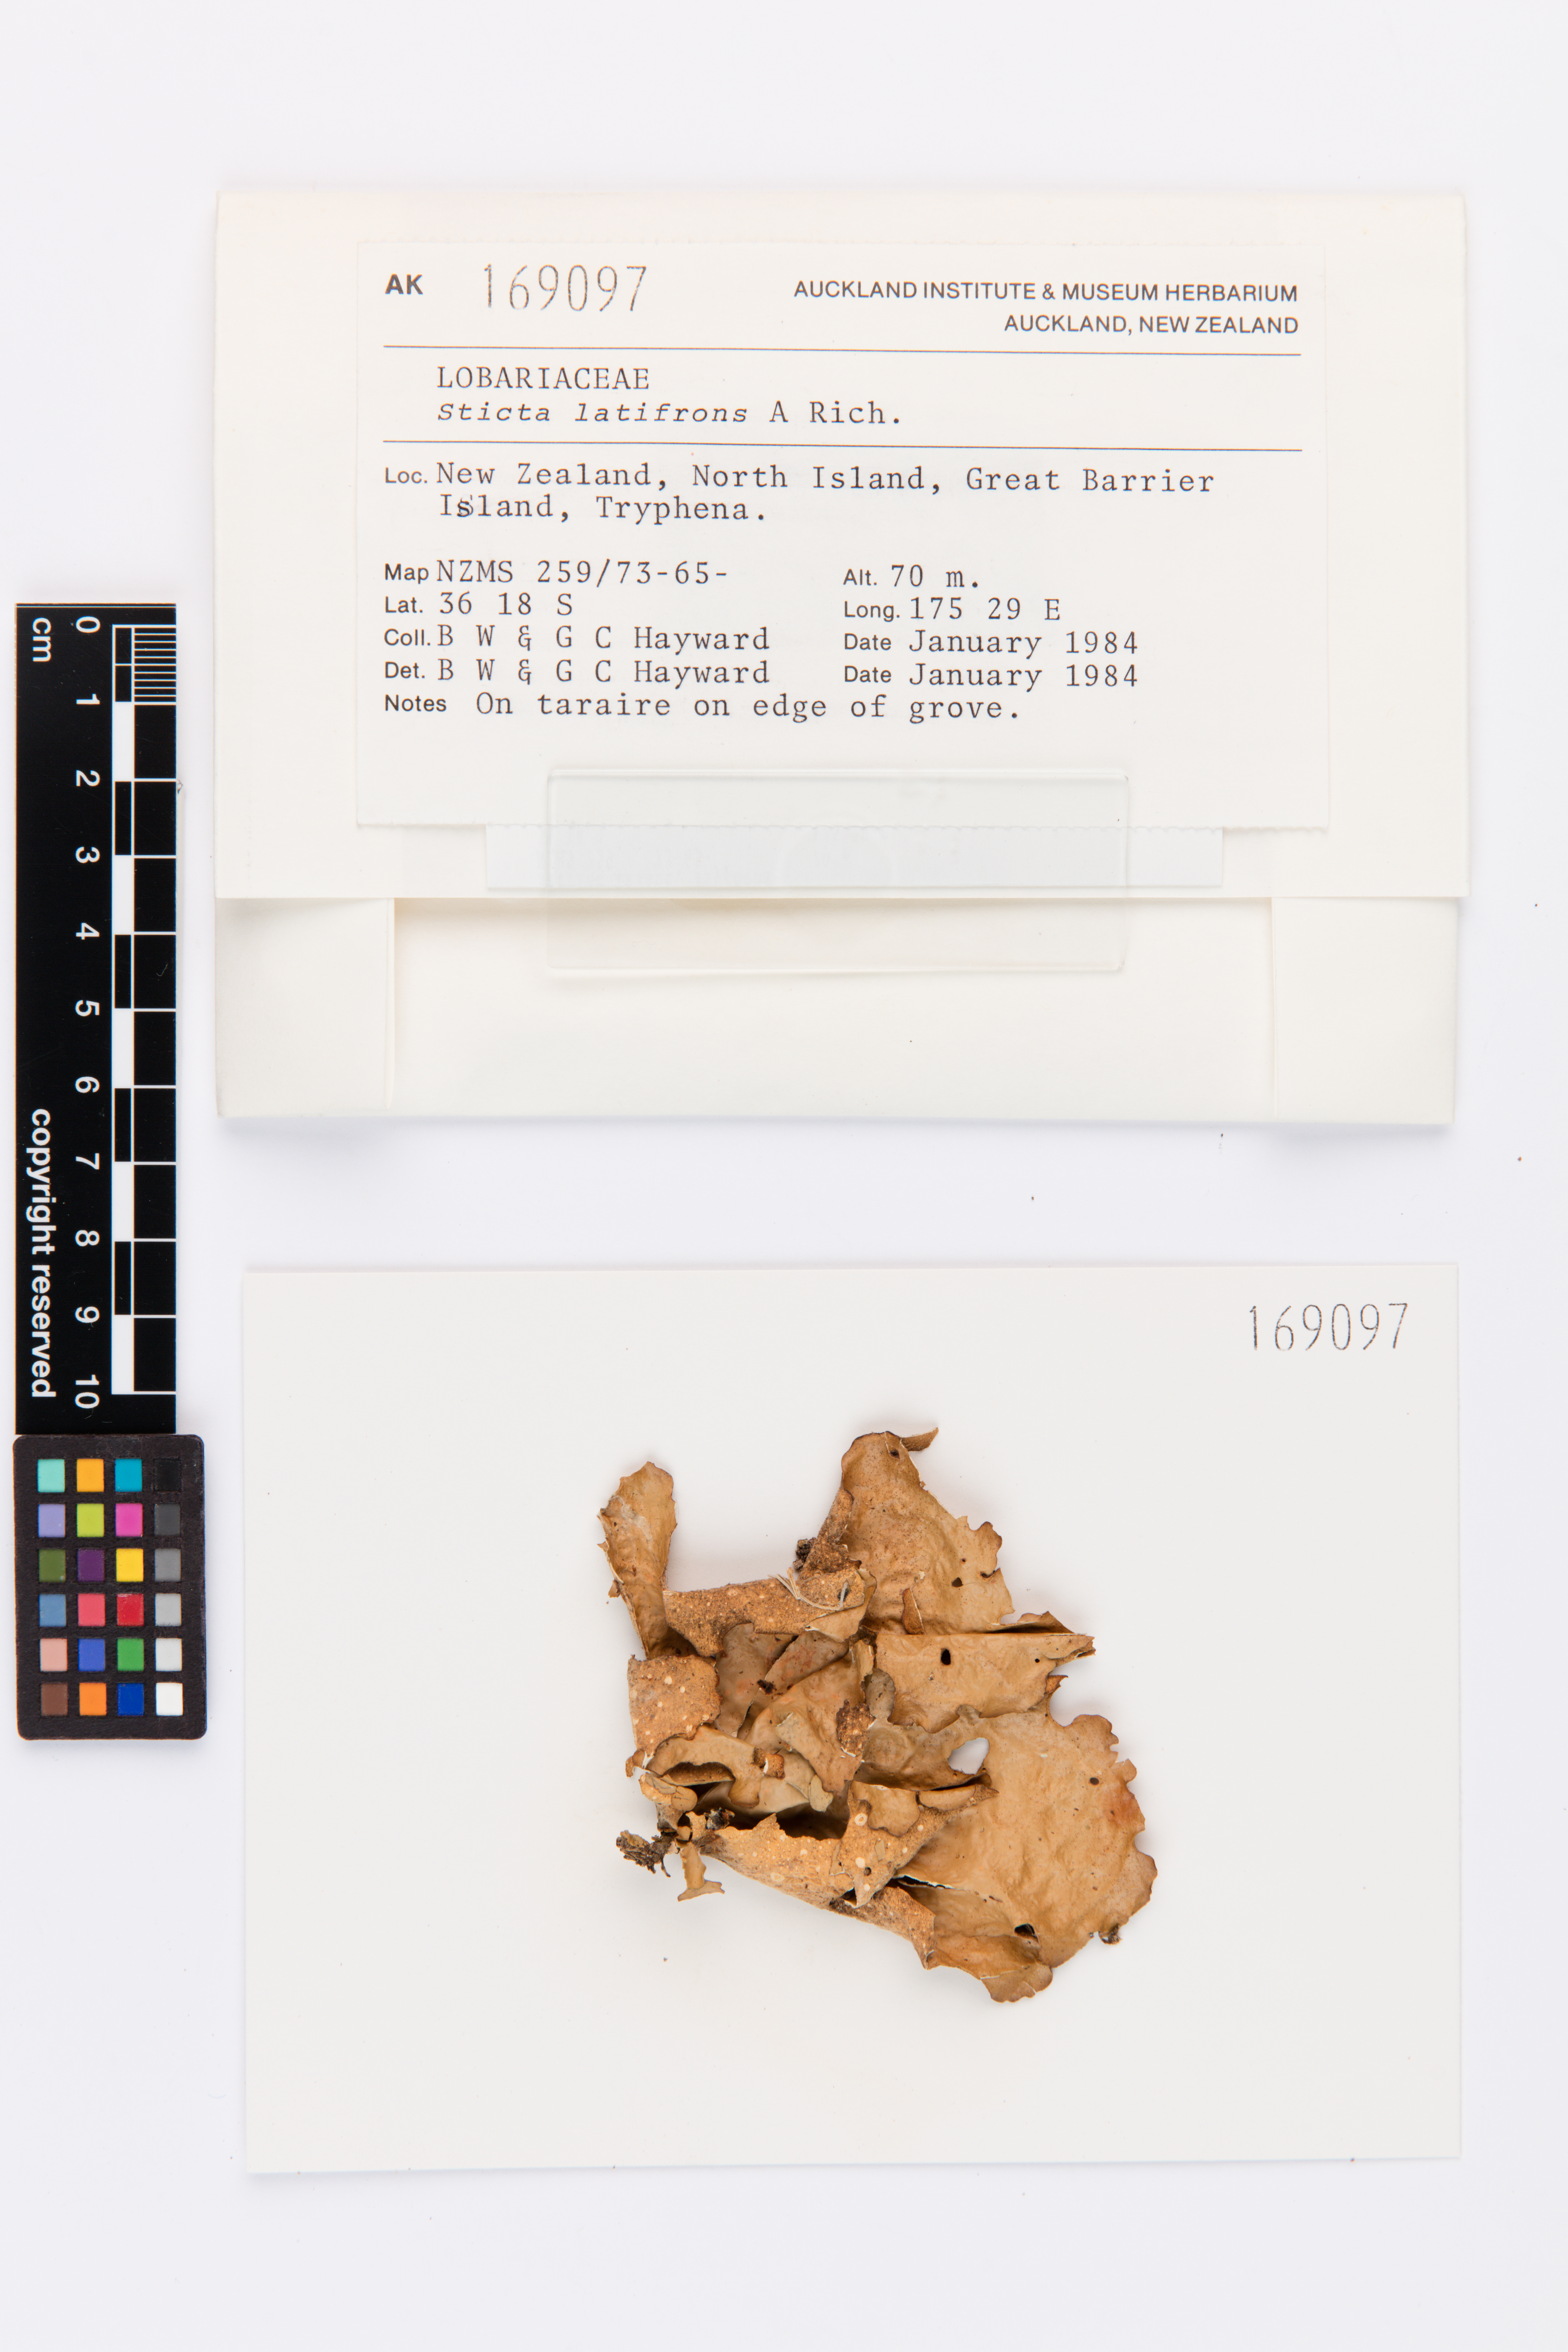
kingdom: Fungi
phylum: Ascomycota
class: Lecanoromycetes
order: Peltigerales
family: Lobariaceae
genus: Sticta
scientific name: Sticta latifrons
